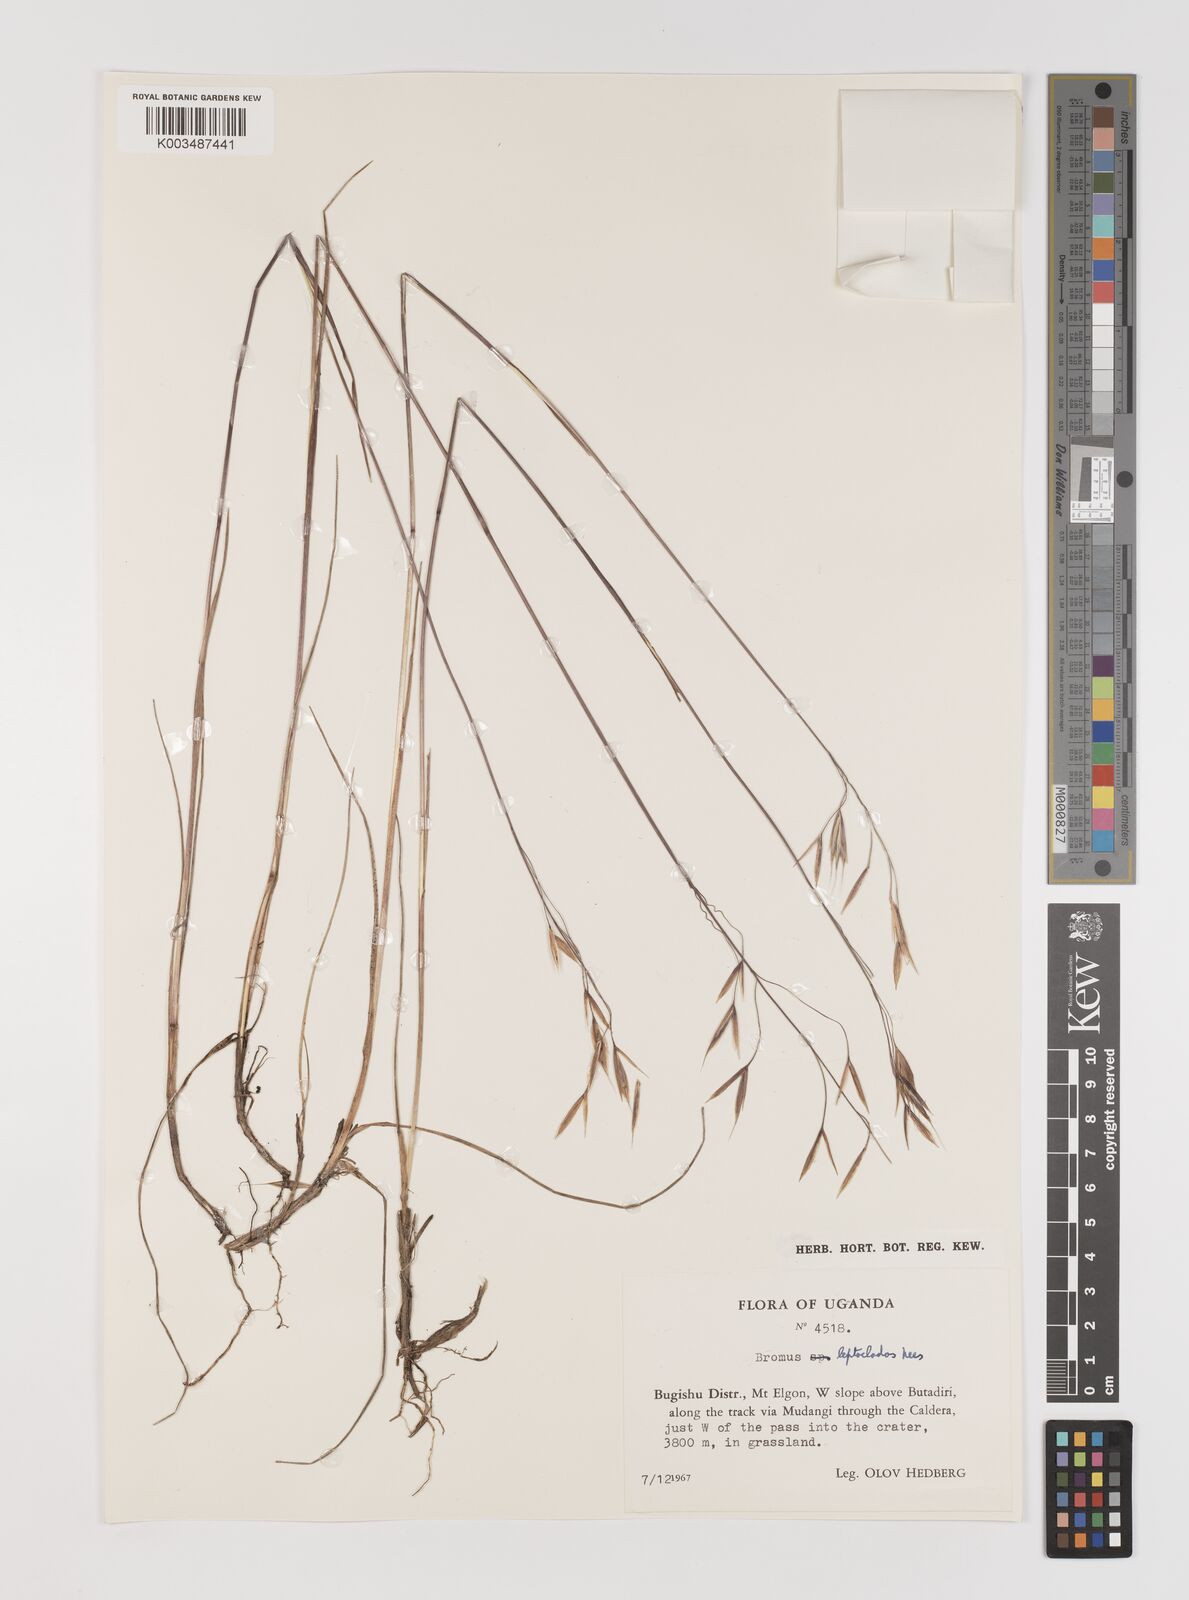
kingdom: Plantae
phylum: Tracheophyta
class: Liliopsida
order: Poales
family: Poaceae
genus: Bromus
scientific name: Bromus leptoclados
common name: Mountain bromegrass
